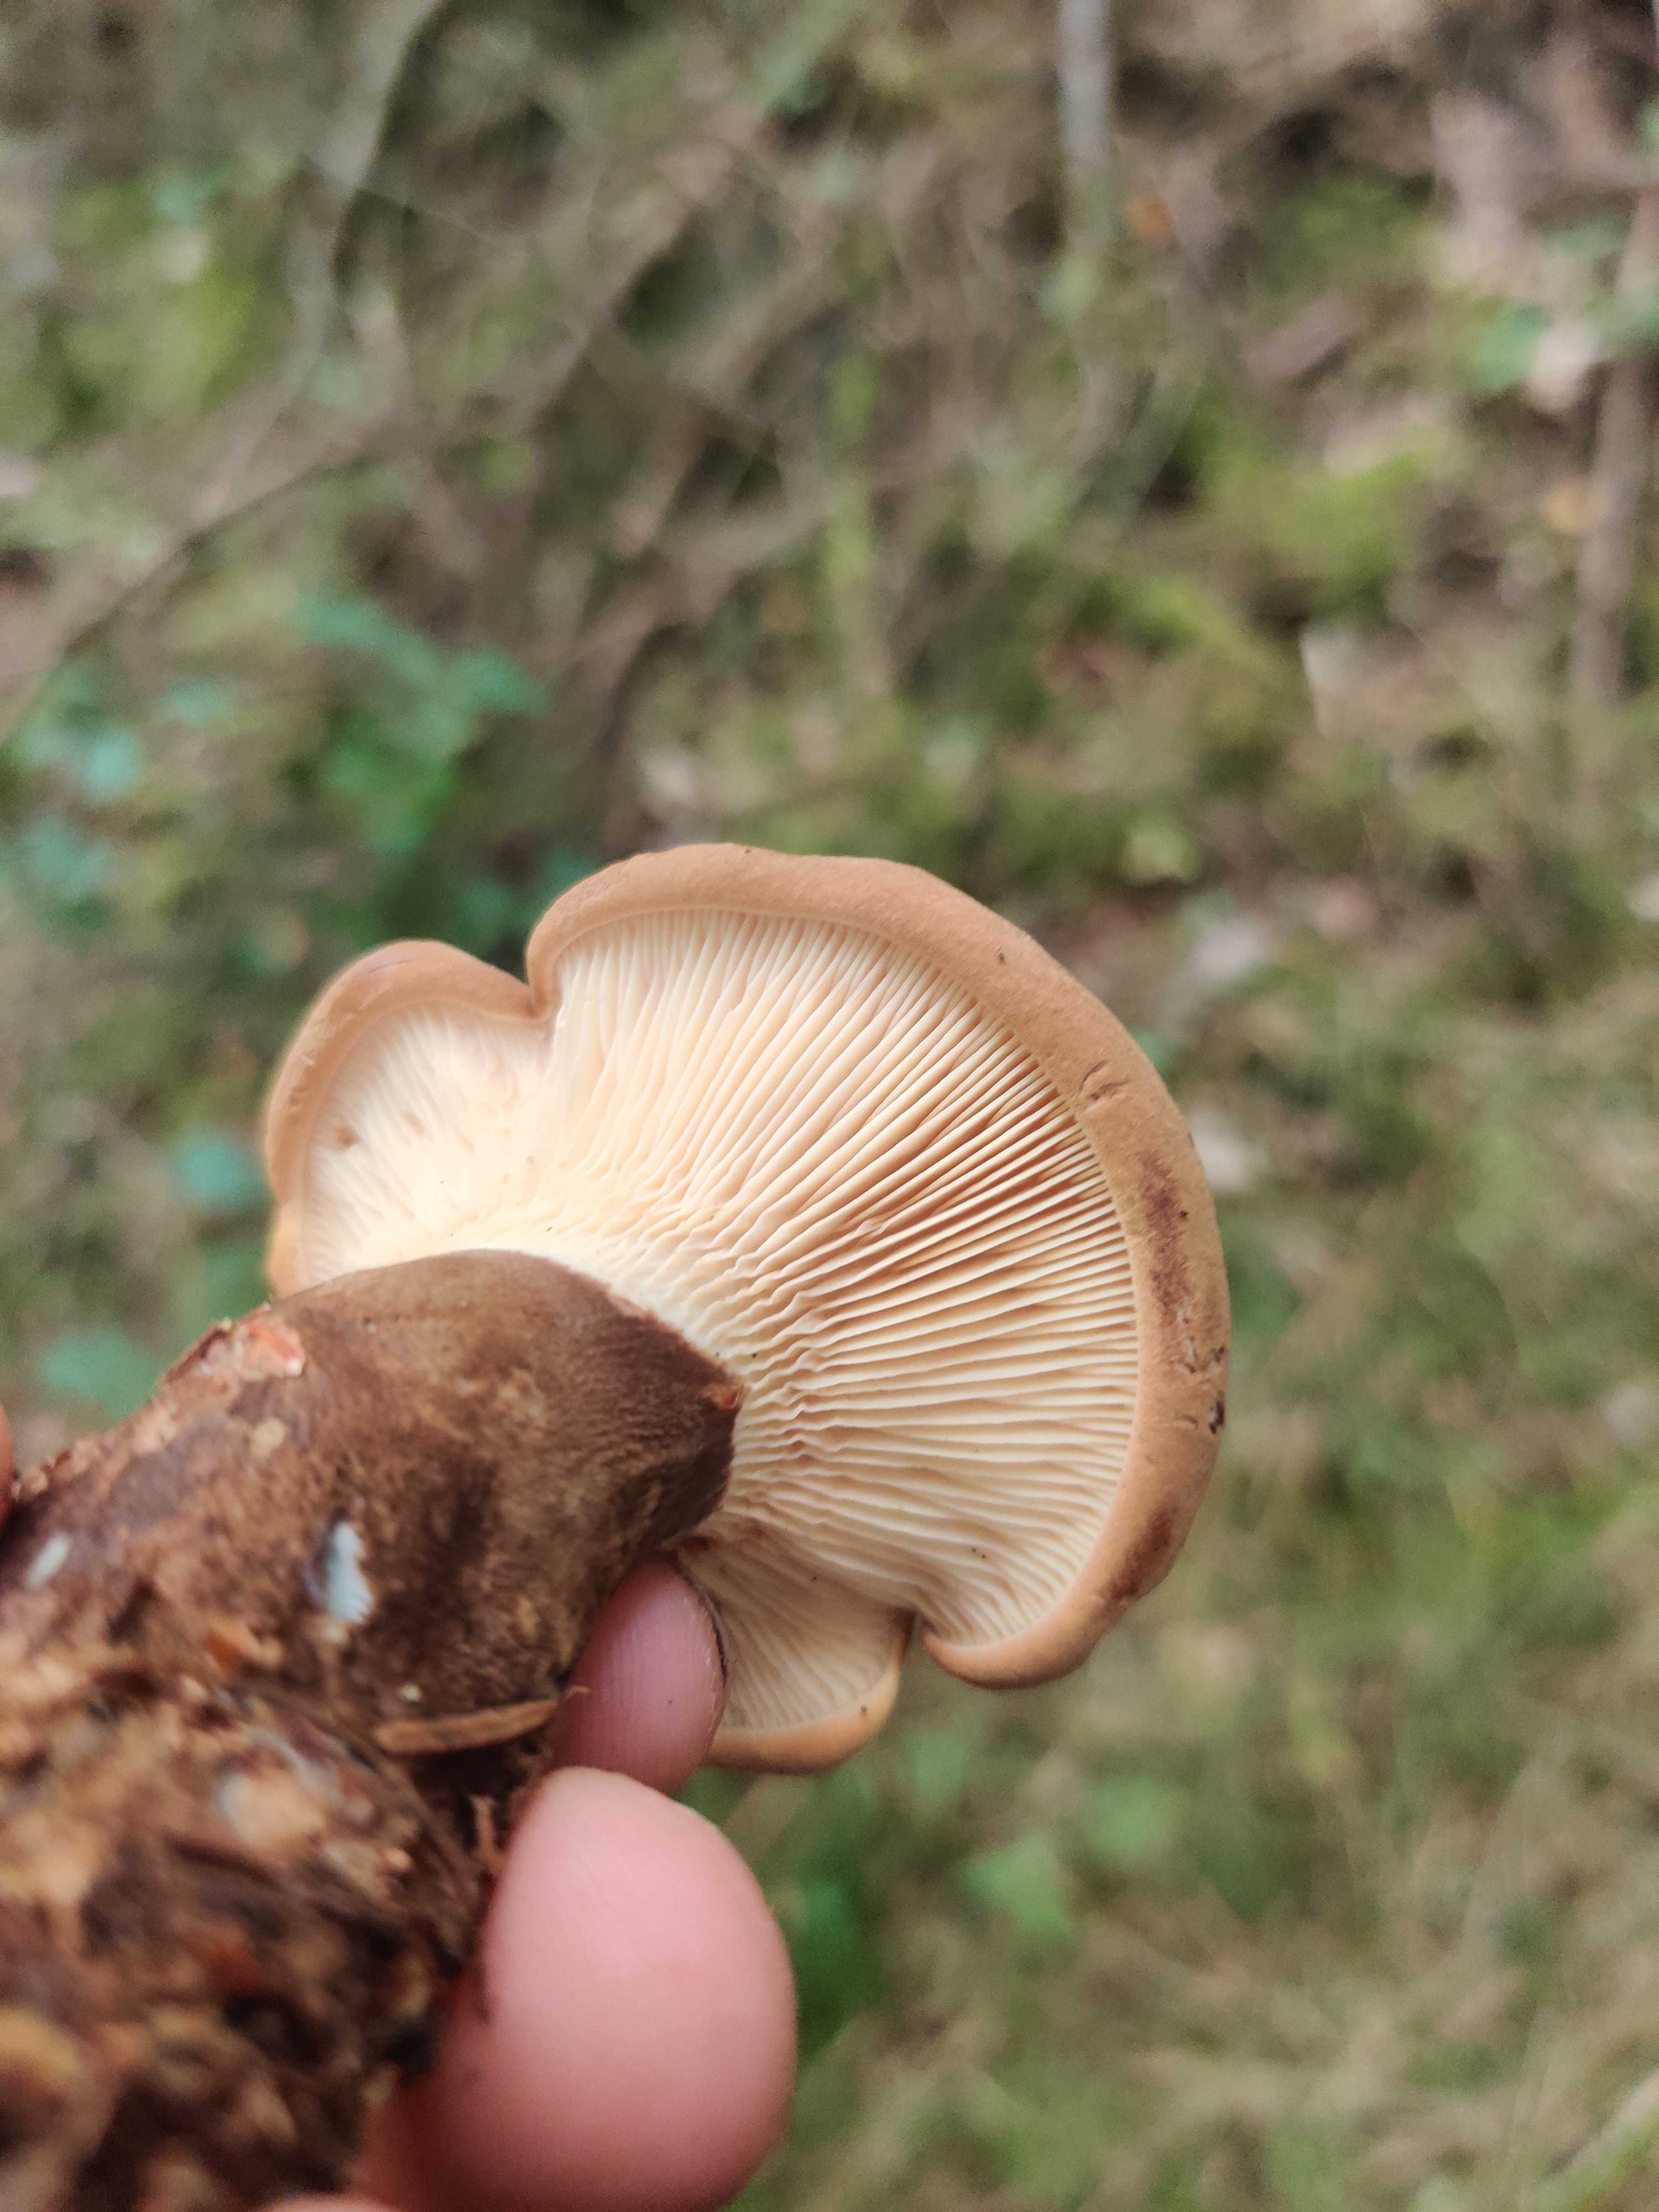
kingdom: Fungi
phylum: Basidiomycota
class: Agaricomycetes
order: Boletales
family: Tapinellaceae
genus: Tapinella
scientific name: Tapinella atrotomentosa
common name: sortfiltet viftesvamp
